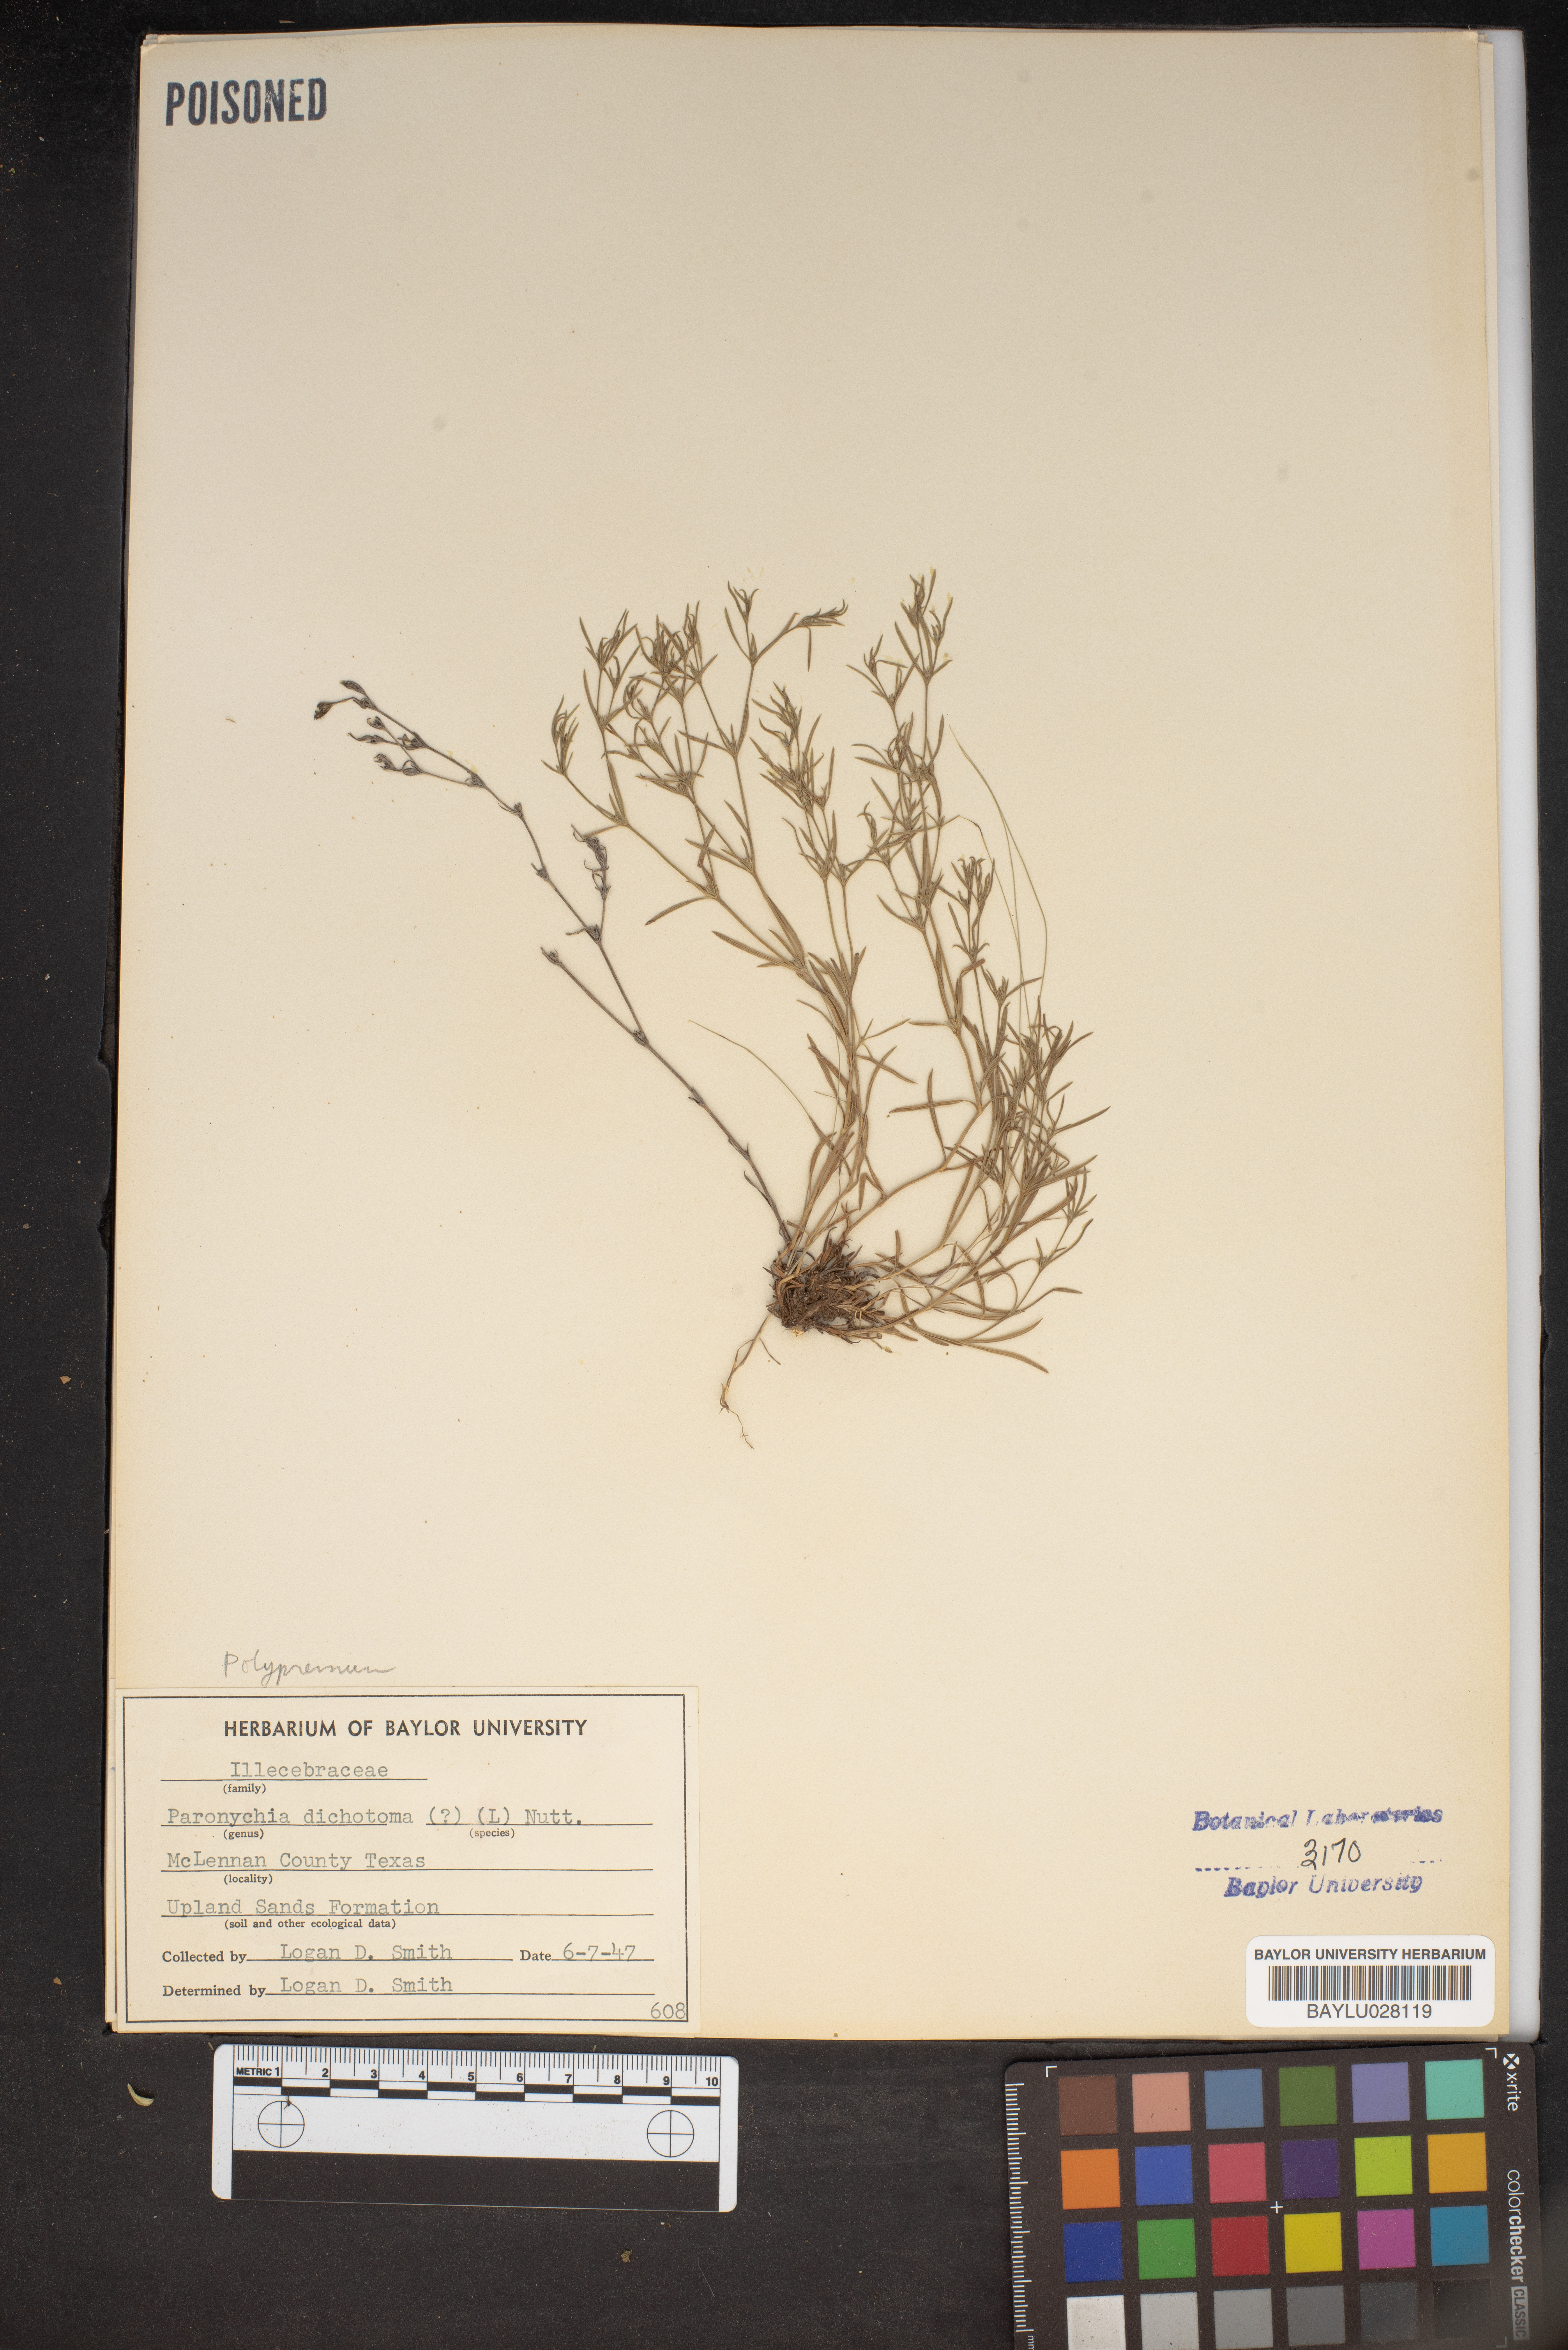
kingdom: Plantae
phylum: Tracheophyta
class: Magnoliopsida
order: Caryophyllales
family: Caryophyllaceae
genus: Paronychia
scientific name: Paronychia canadensis
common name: Canada forked nailwort
